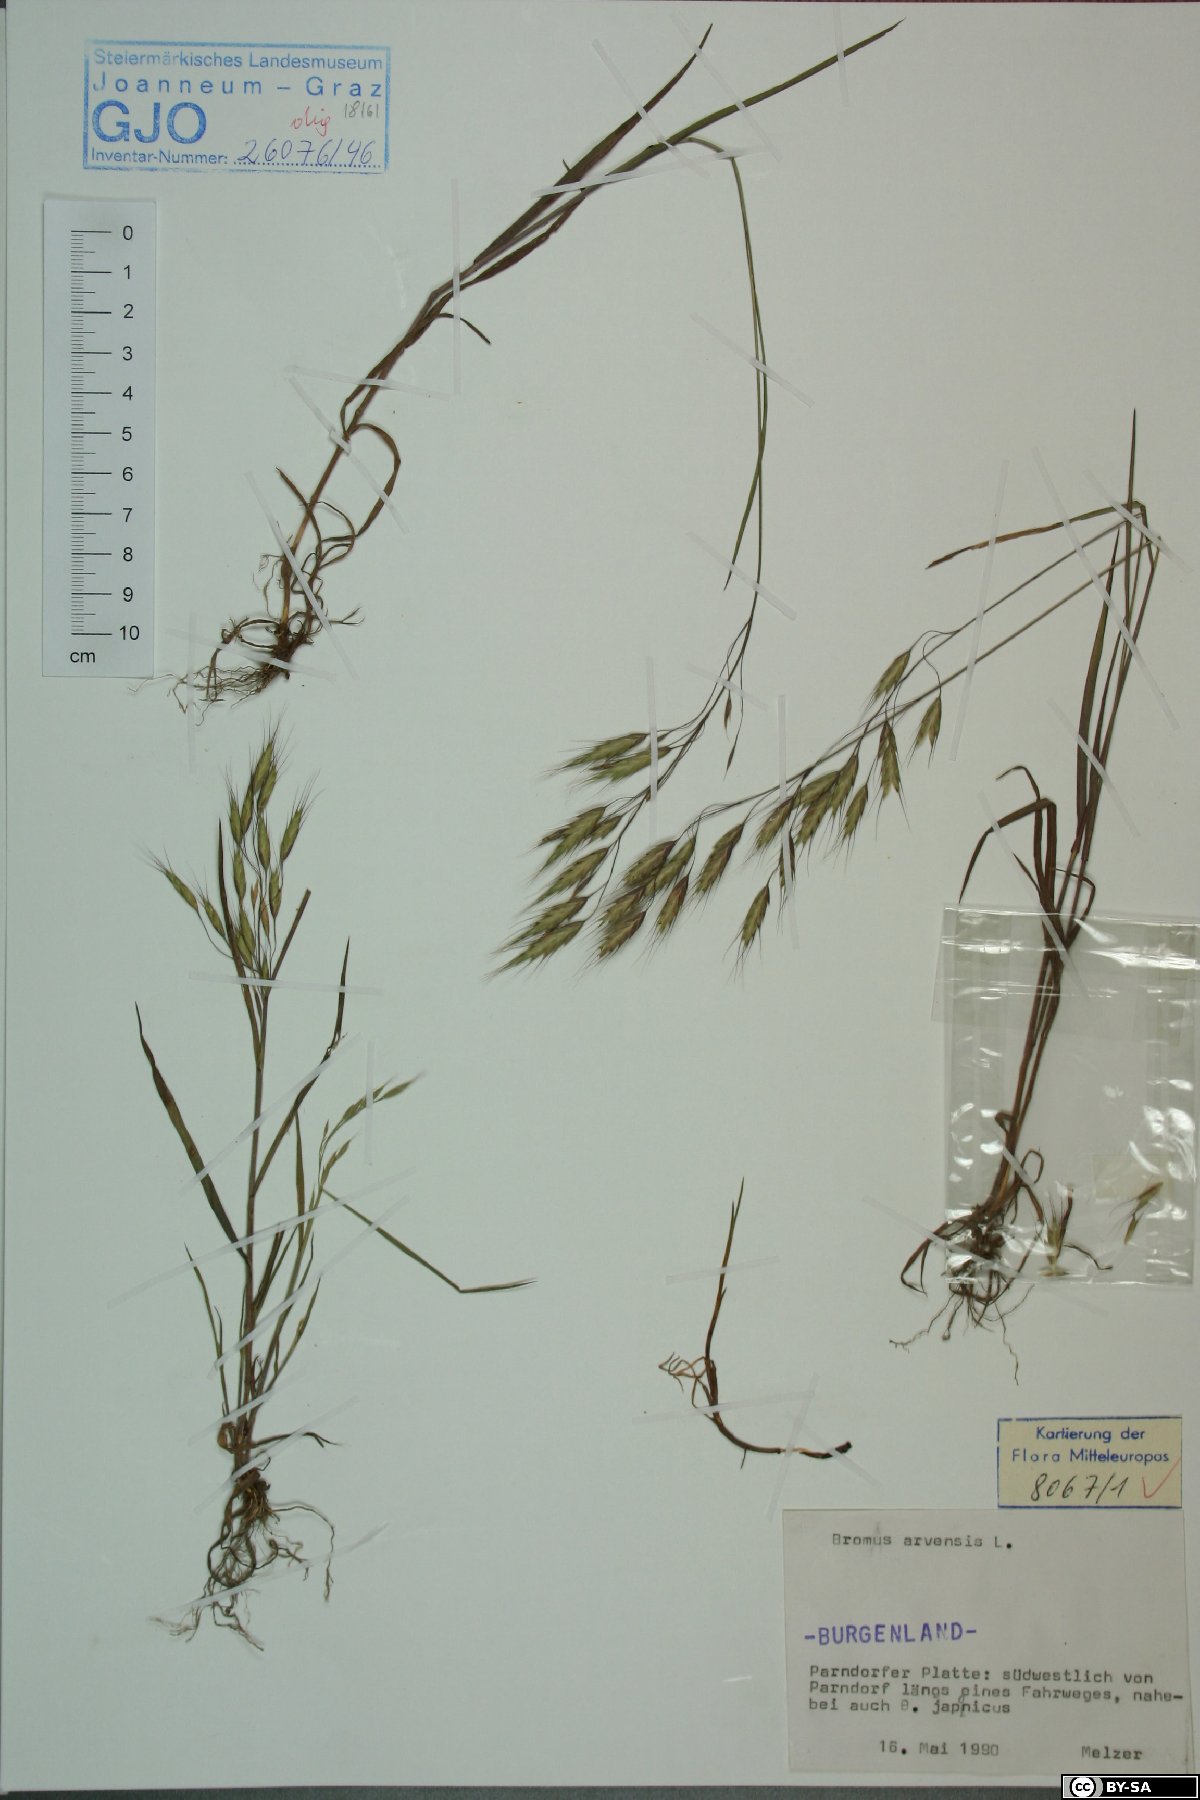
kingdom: Plantae
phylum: Tracheophyta
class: Liliopsida
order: Poales
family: Poaceae
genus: Bromus
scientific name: Bromus arvensis
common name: Field brome
